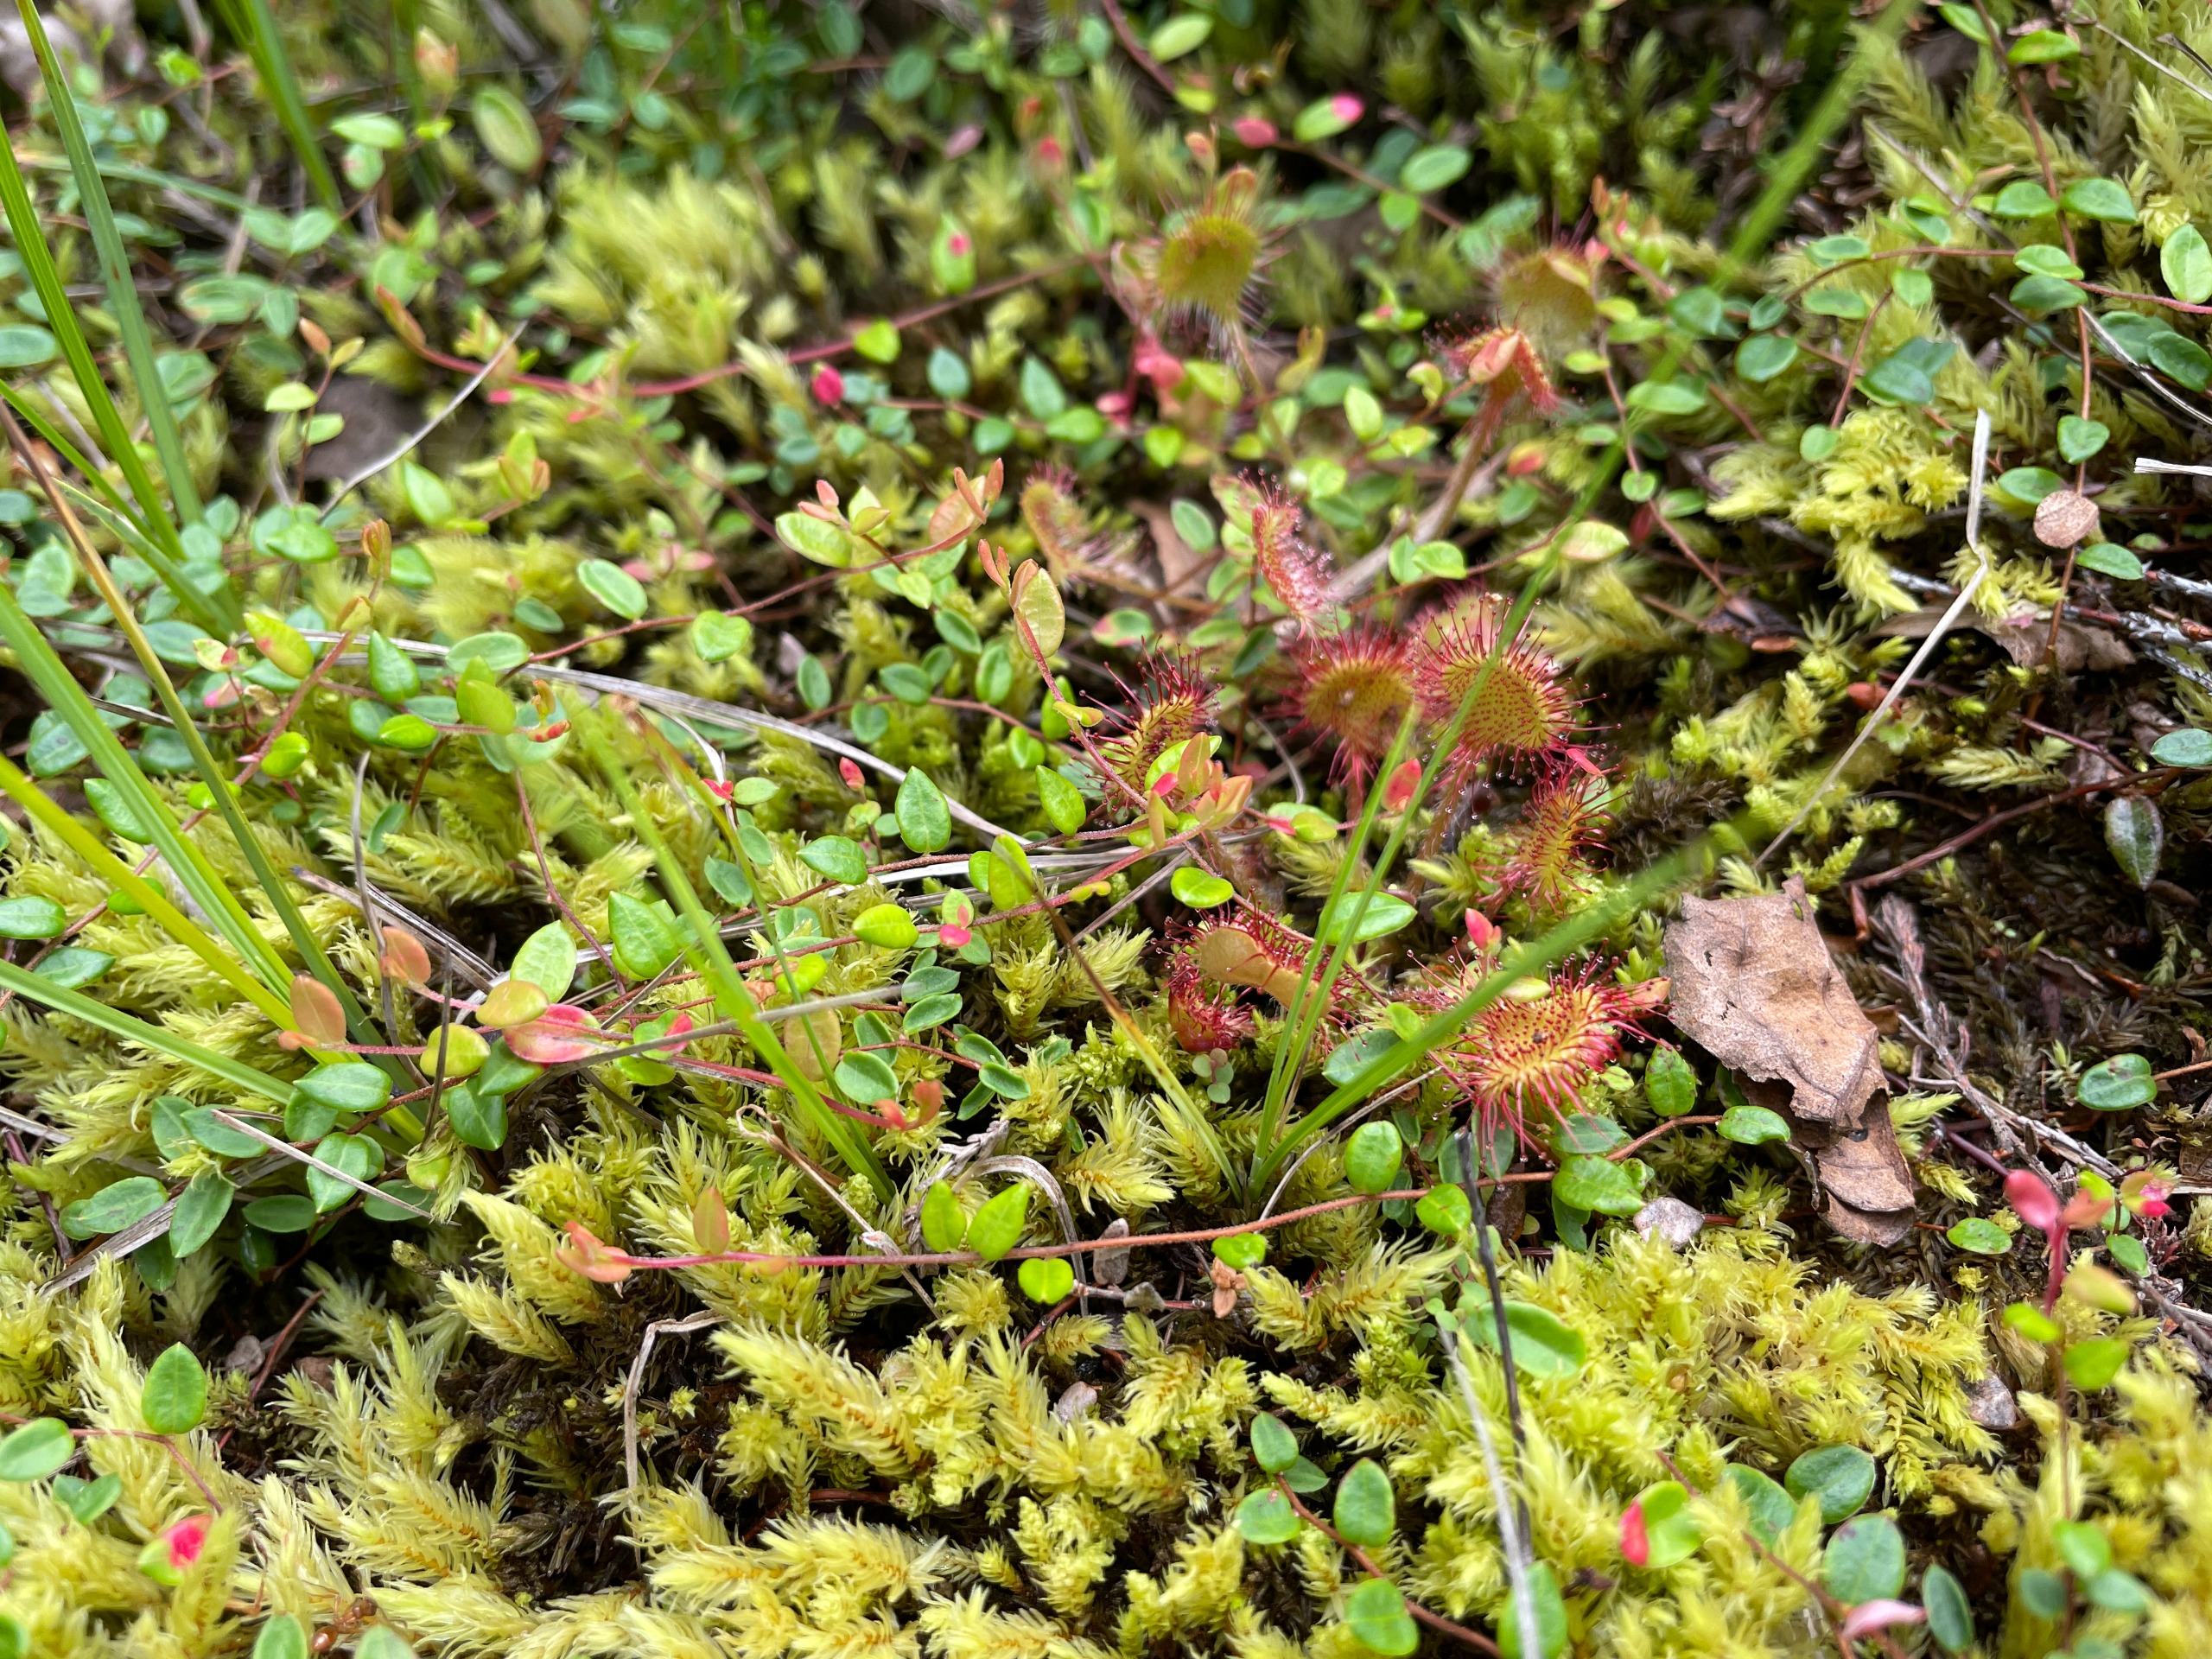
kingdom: Plantae
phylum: Tracheophyta
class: Magnoliopsida
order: Caryophyllales
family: Droseraceae
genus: Drosera
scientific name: Drosera rotundifolia
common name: Rundbladet soldug
